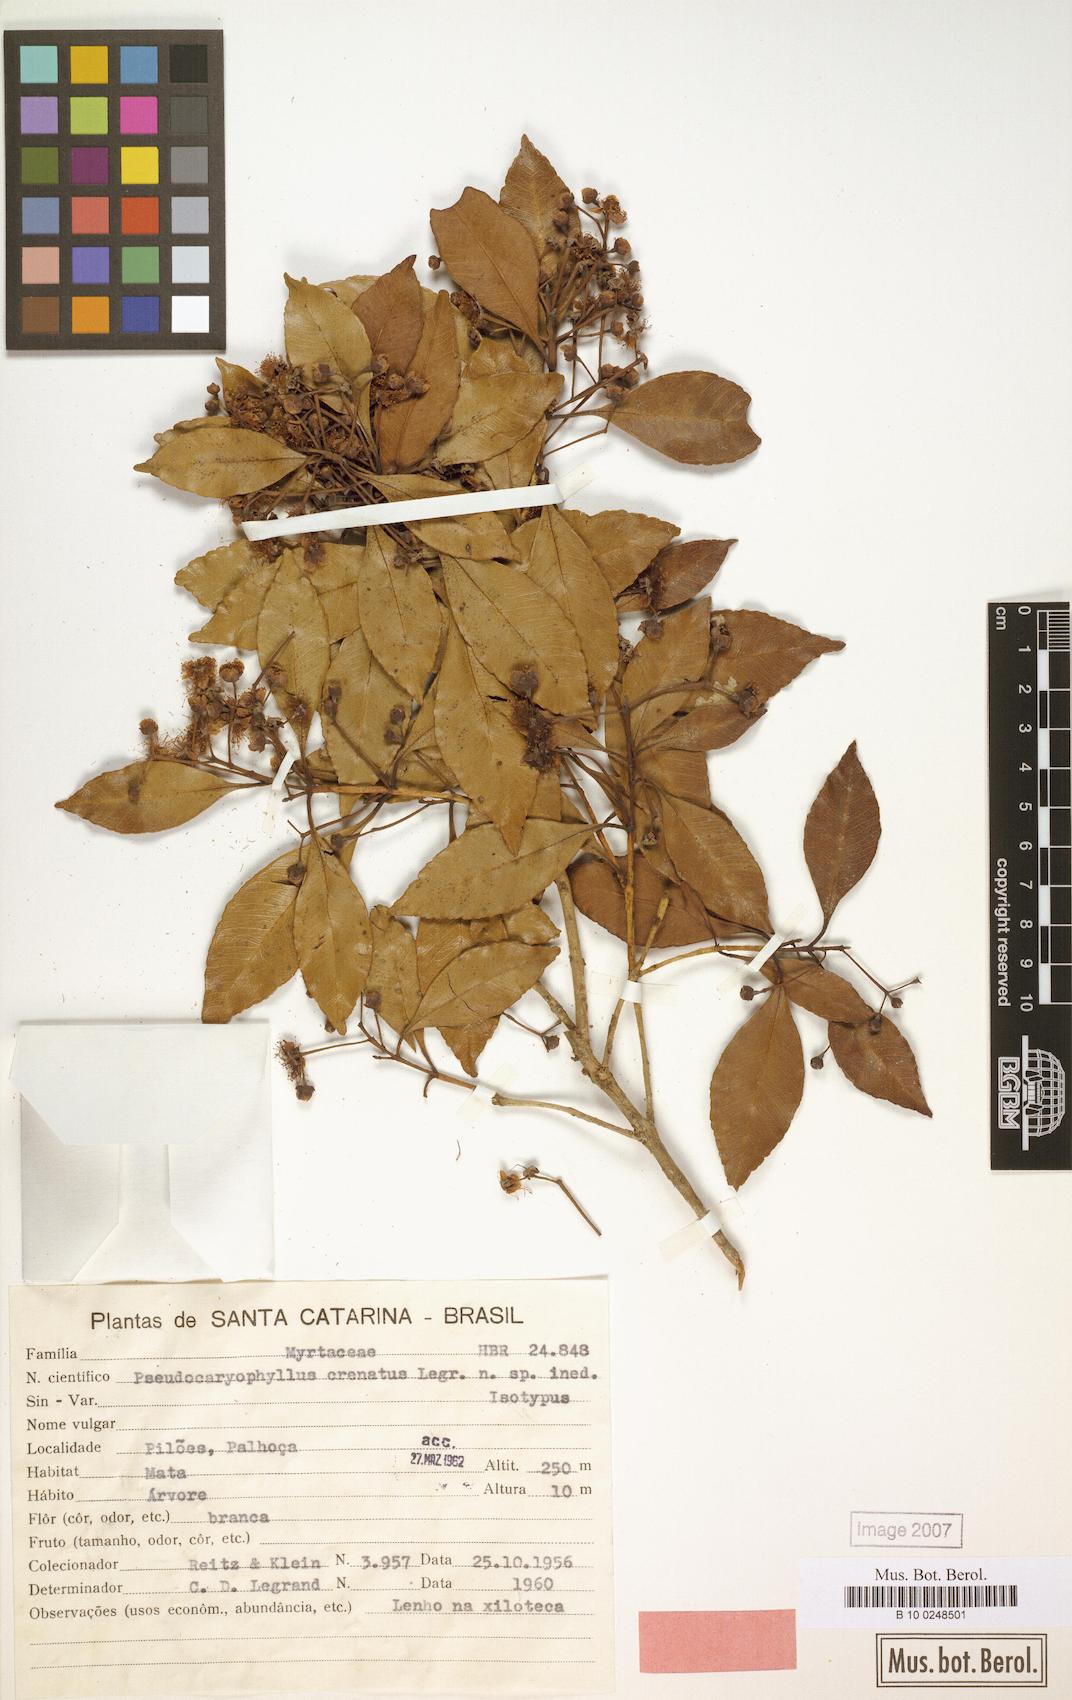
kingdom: Plantae
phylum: Tracheophyta
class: Magnoliopsida
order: Myrtales
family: Myrtaceae
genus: Pimenta
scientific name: Pimenta pseudocaryophyllus
